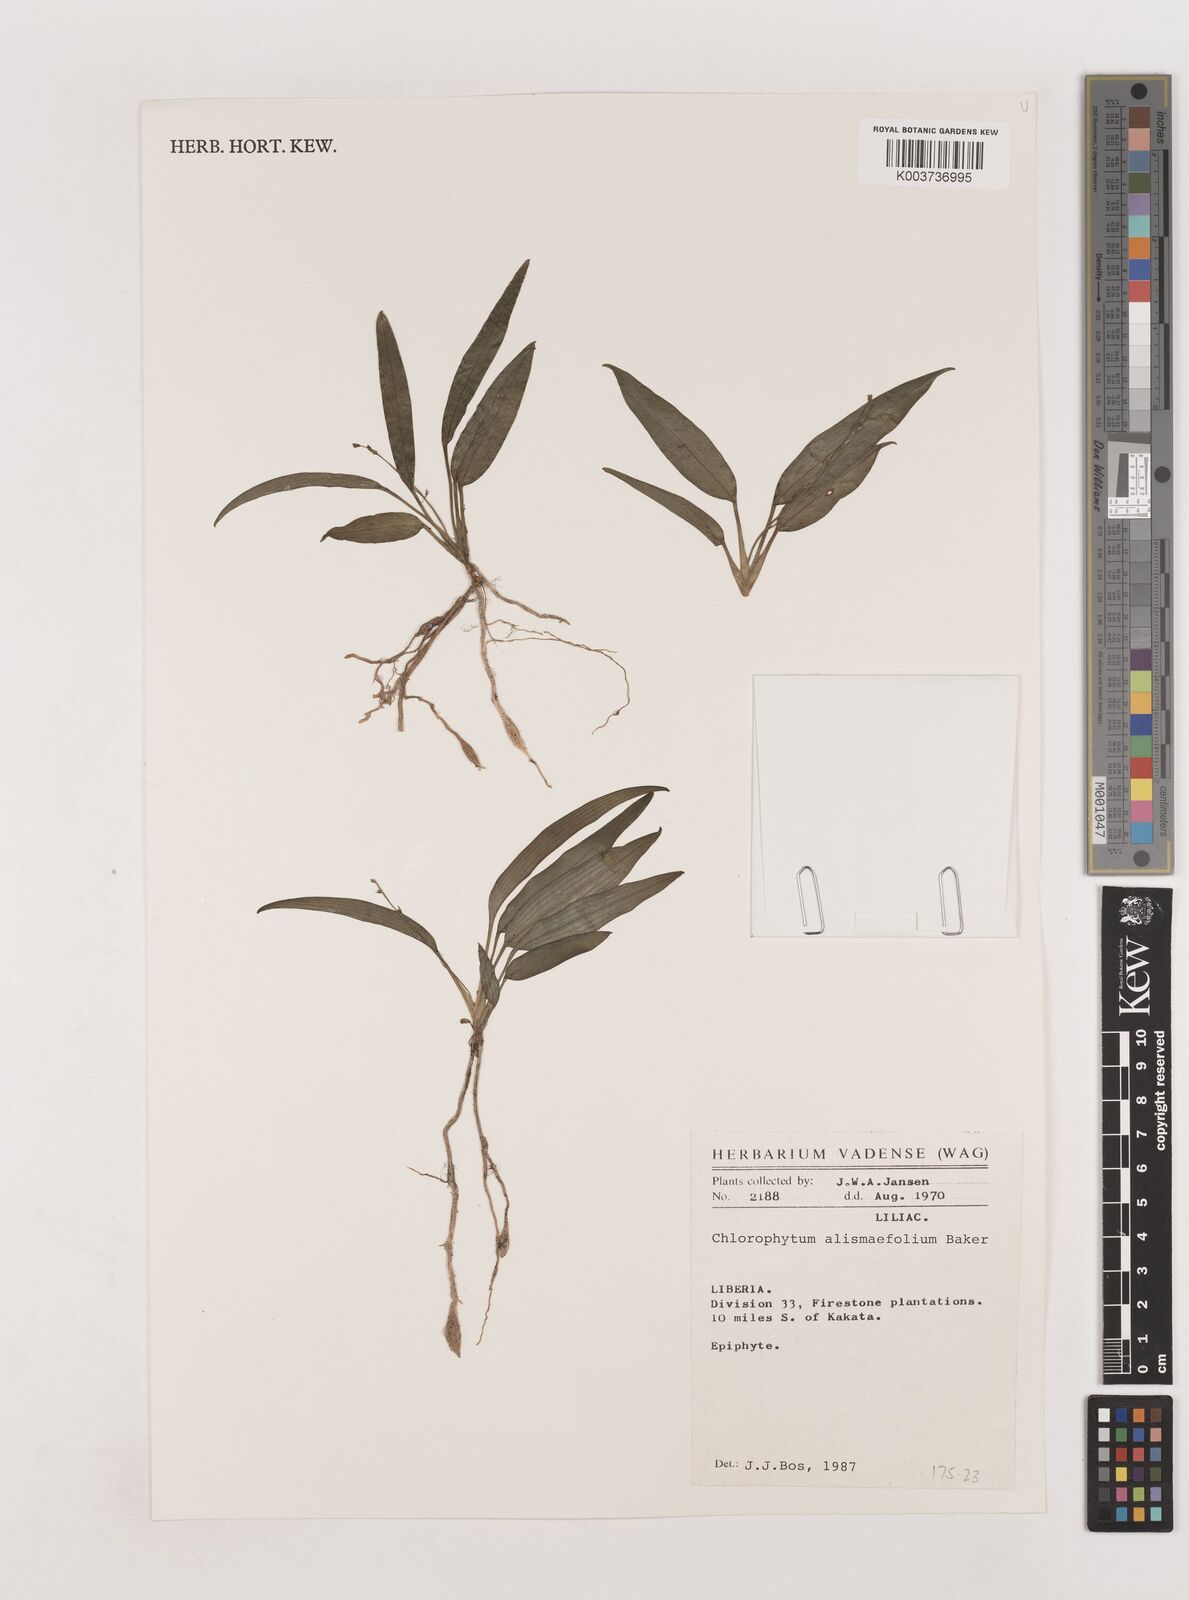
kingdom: Plantae
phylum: Tracheophyta
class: Liliopsida
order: Asparagales
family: Asparagaceae
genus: Chlorophytum
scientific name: Chlorophytum alismifolium
